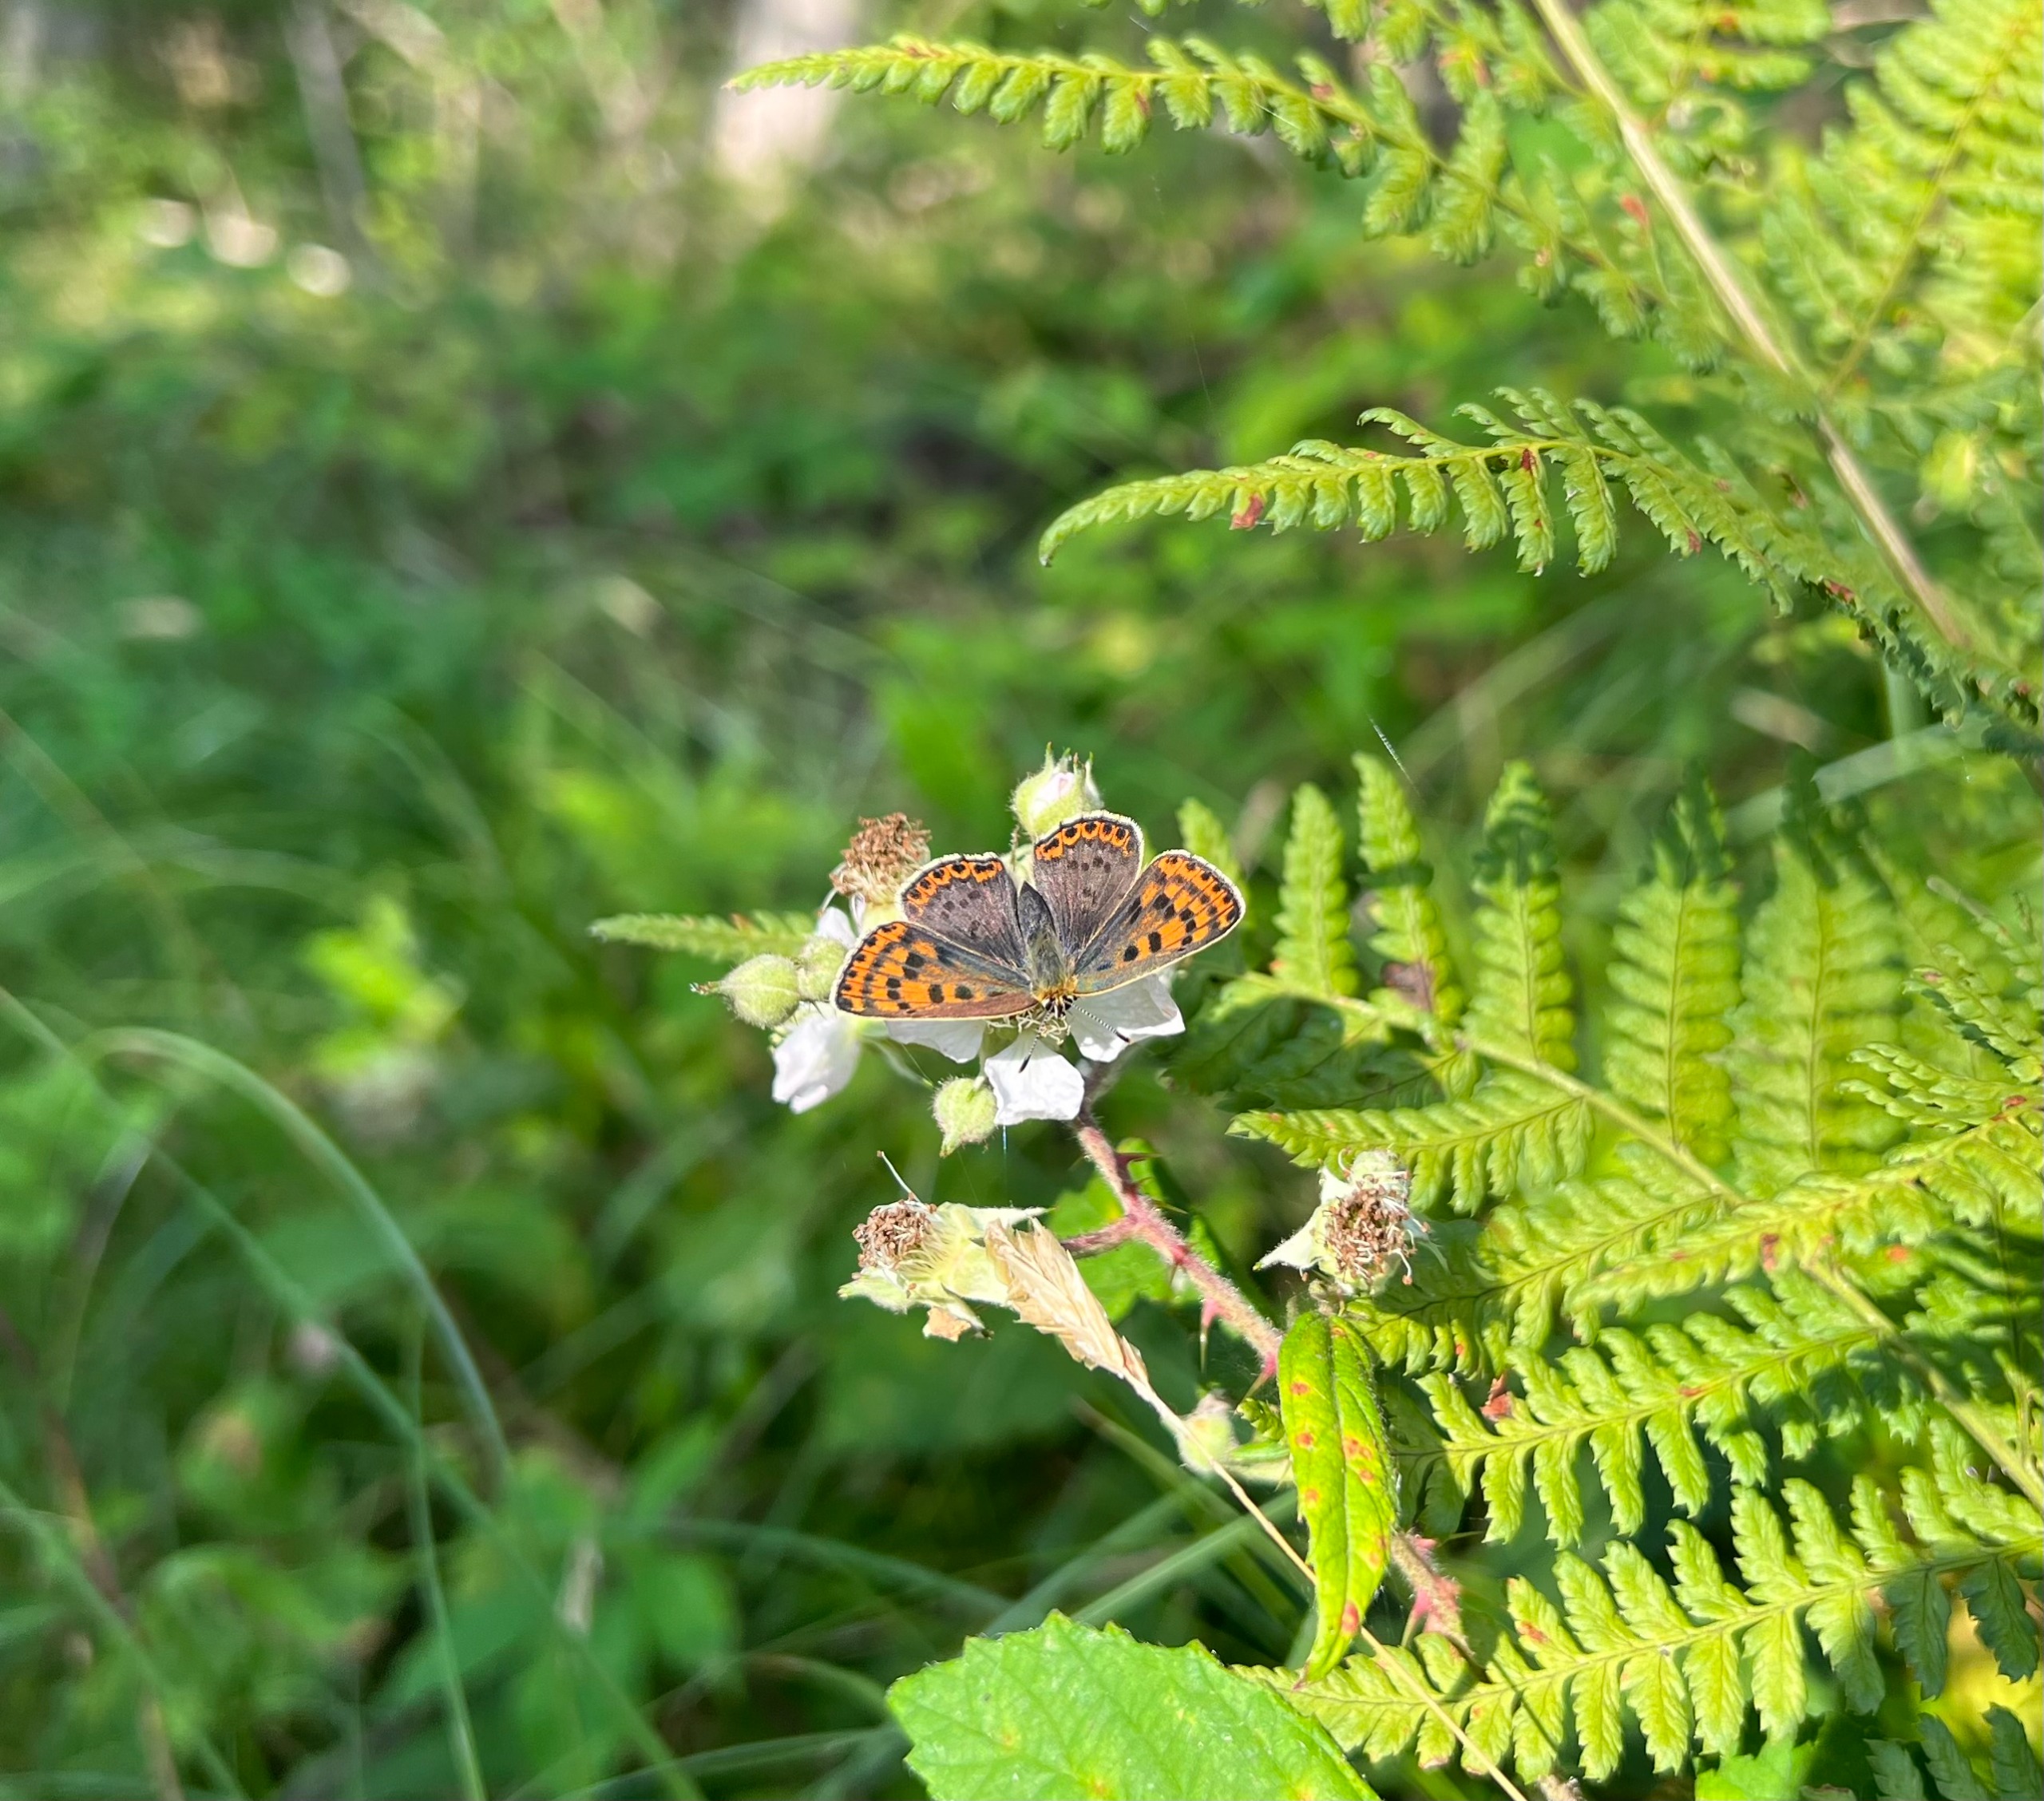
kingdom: Animalia
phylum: Arthropoda
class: Insecta
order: Lepidoptera
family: Lycaenidae
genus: Loweia
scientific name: Loweia tityrus
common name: Sort ildfugl
